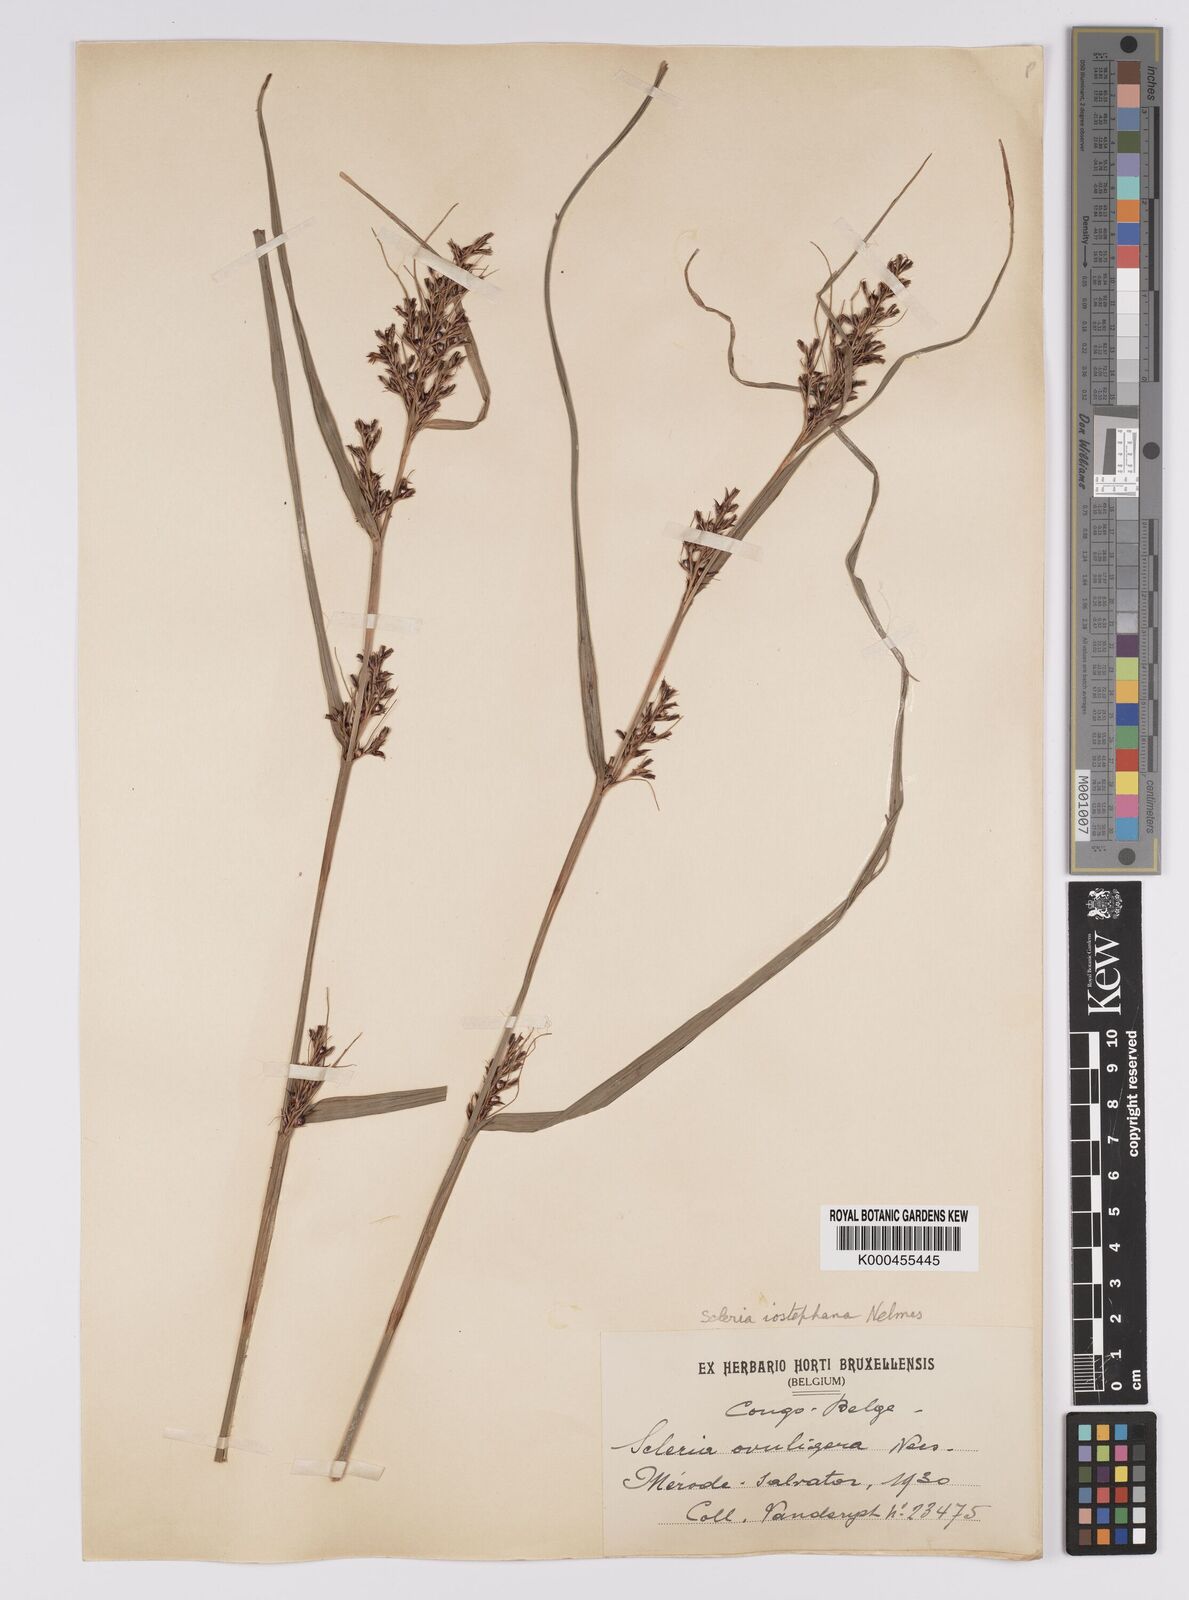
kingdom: Plantae
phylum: Tracheophyta
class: Liliopsida
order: Poales
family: Cyperaceae
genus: Scleria
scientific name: Scleria iostephana
